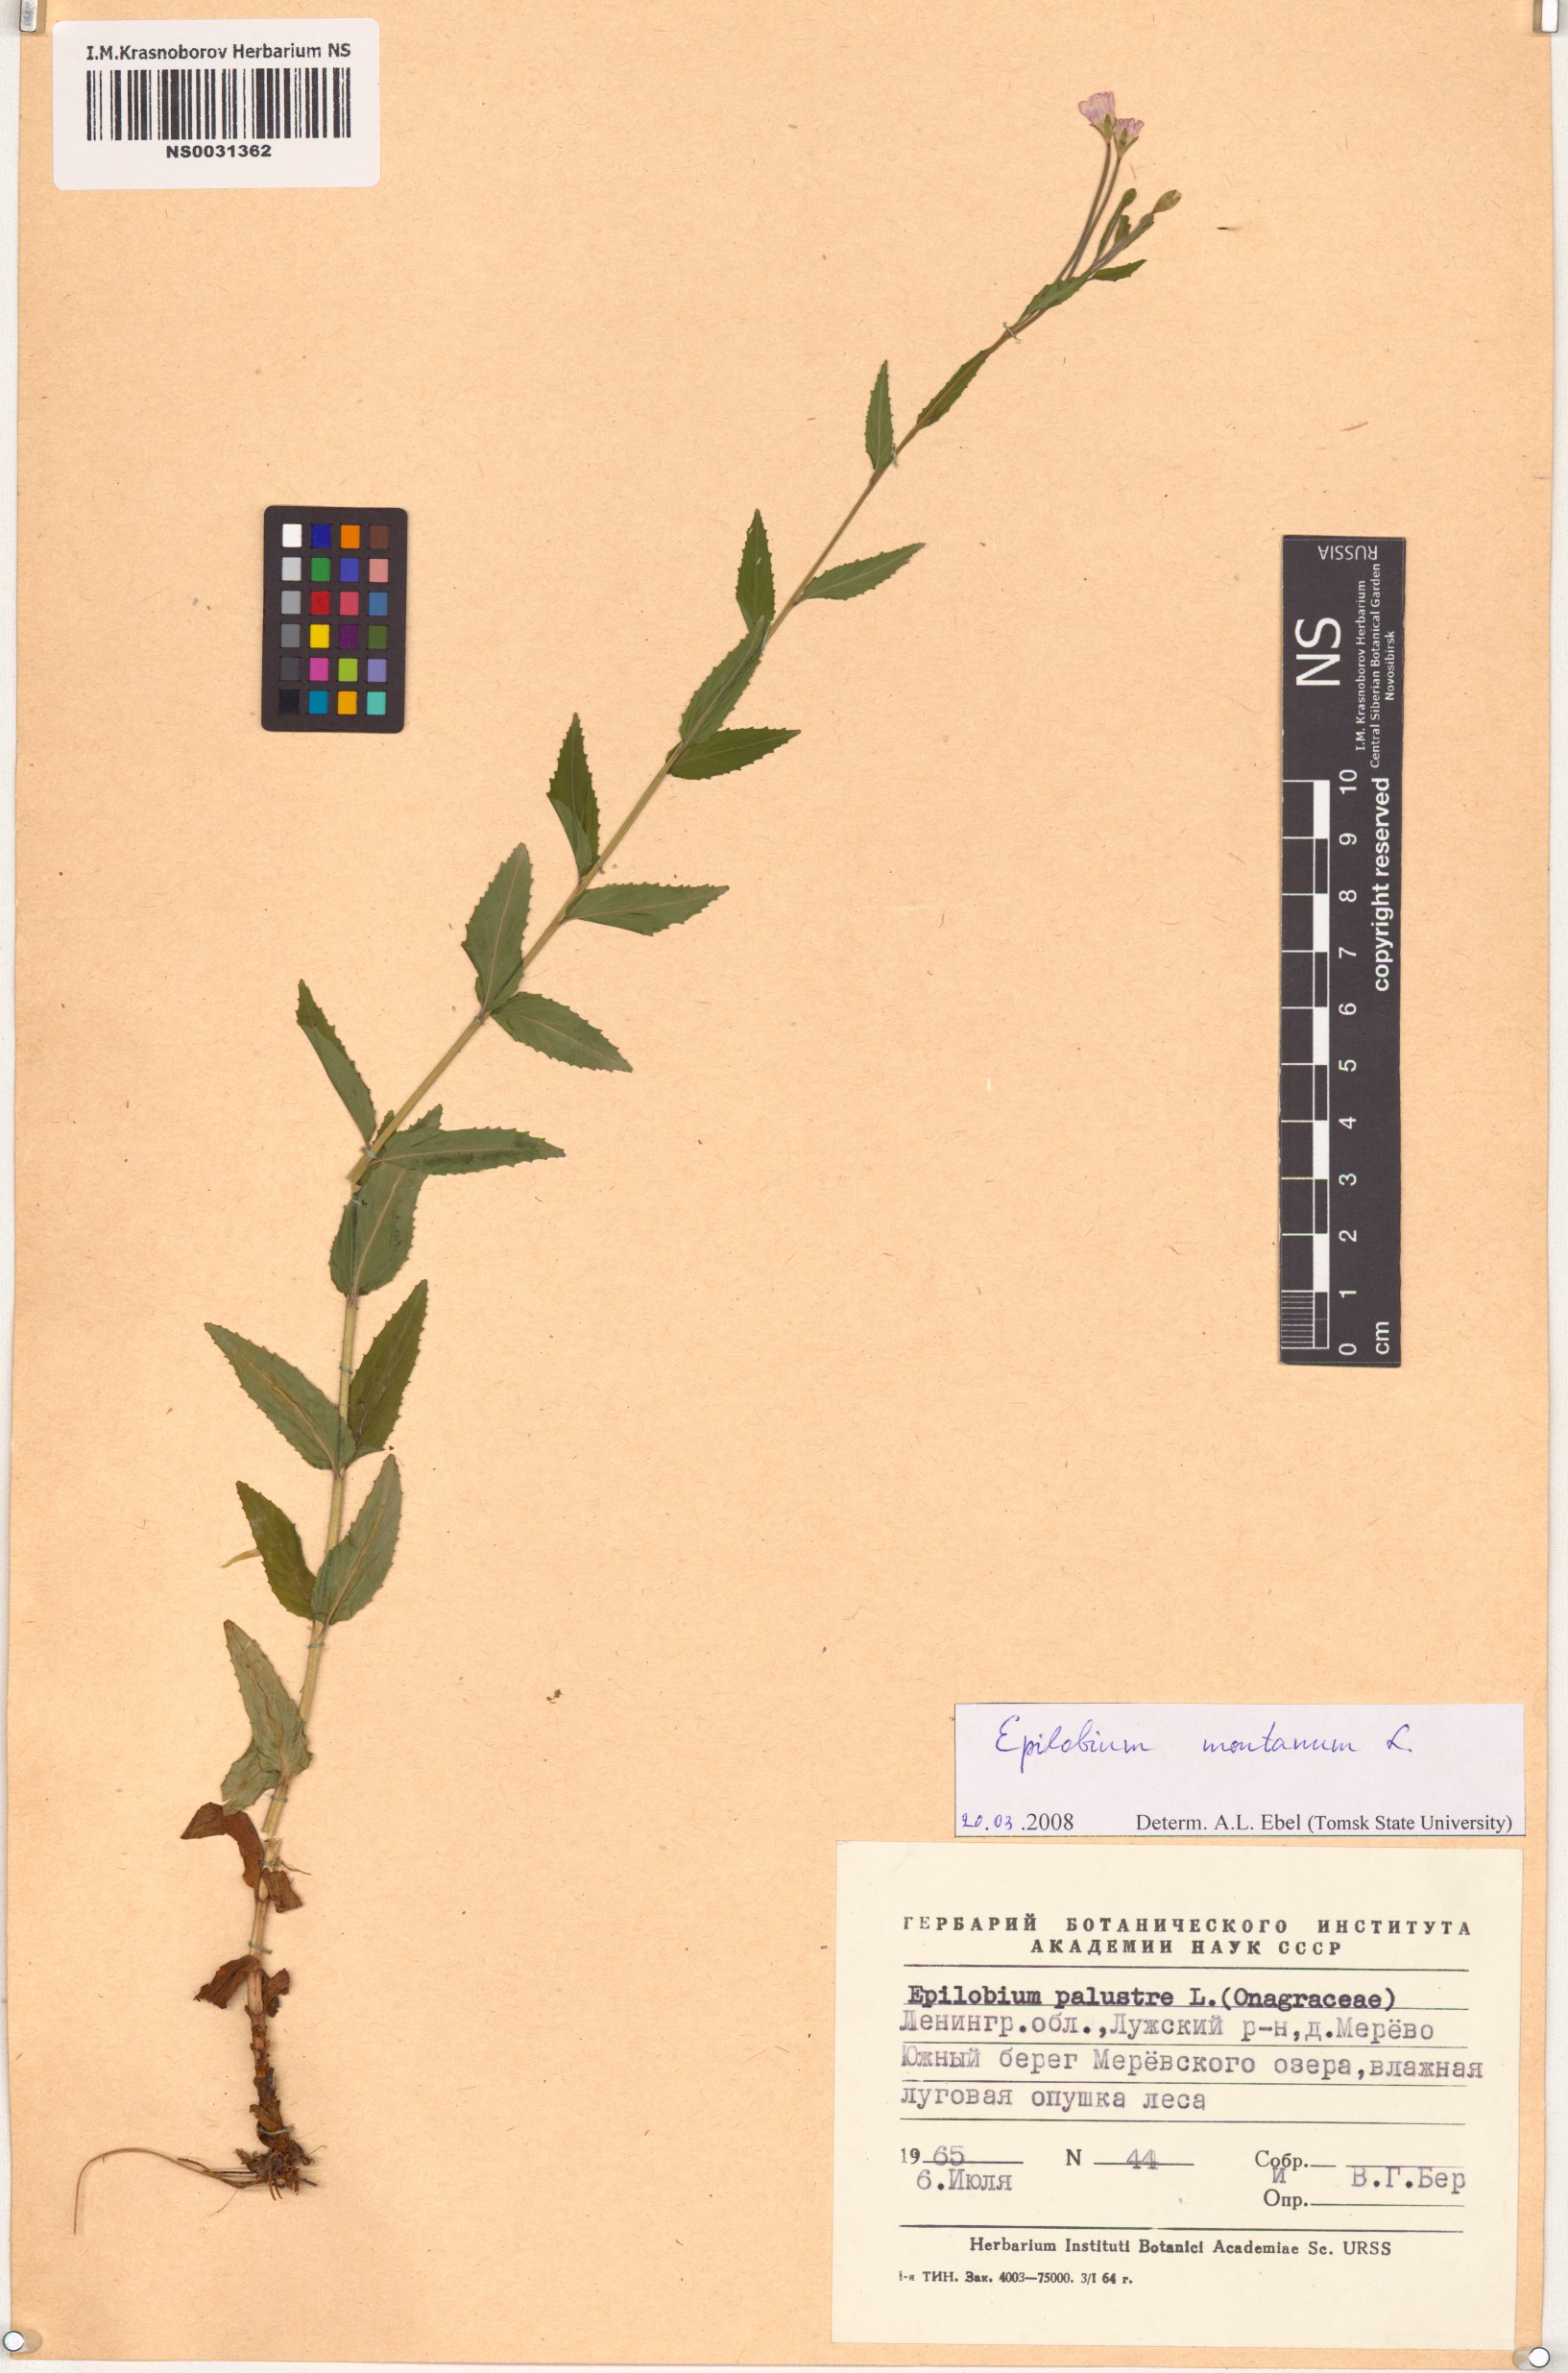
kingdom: Plantae
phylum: Tracheophyta
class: Magnoliopsida
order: Myrtales
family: Onagraceae
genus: Epilobium
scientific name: Epilobium montanum
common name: Broad-leaved willowherb
